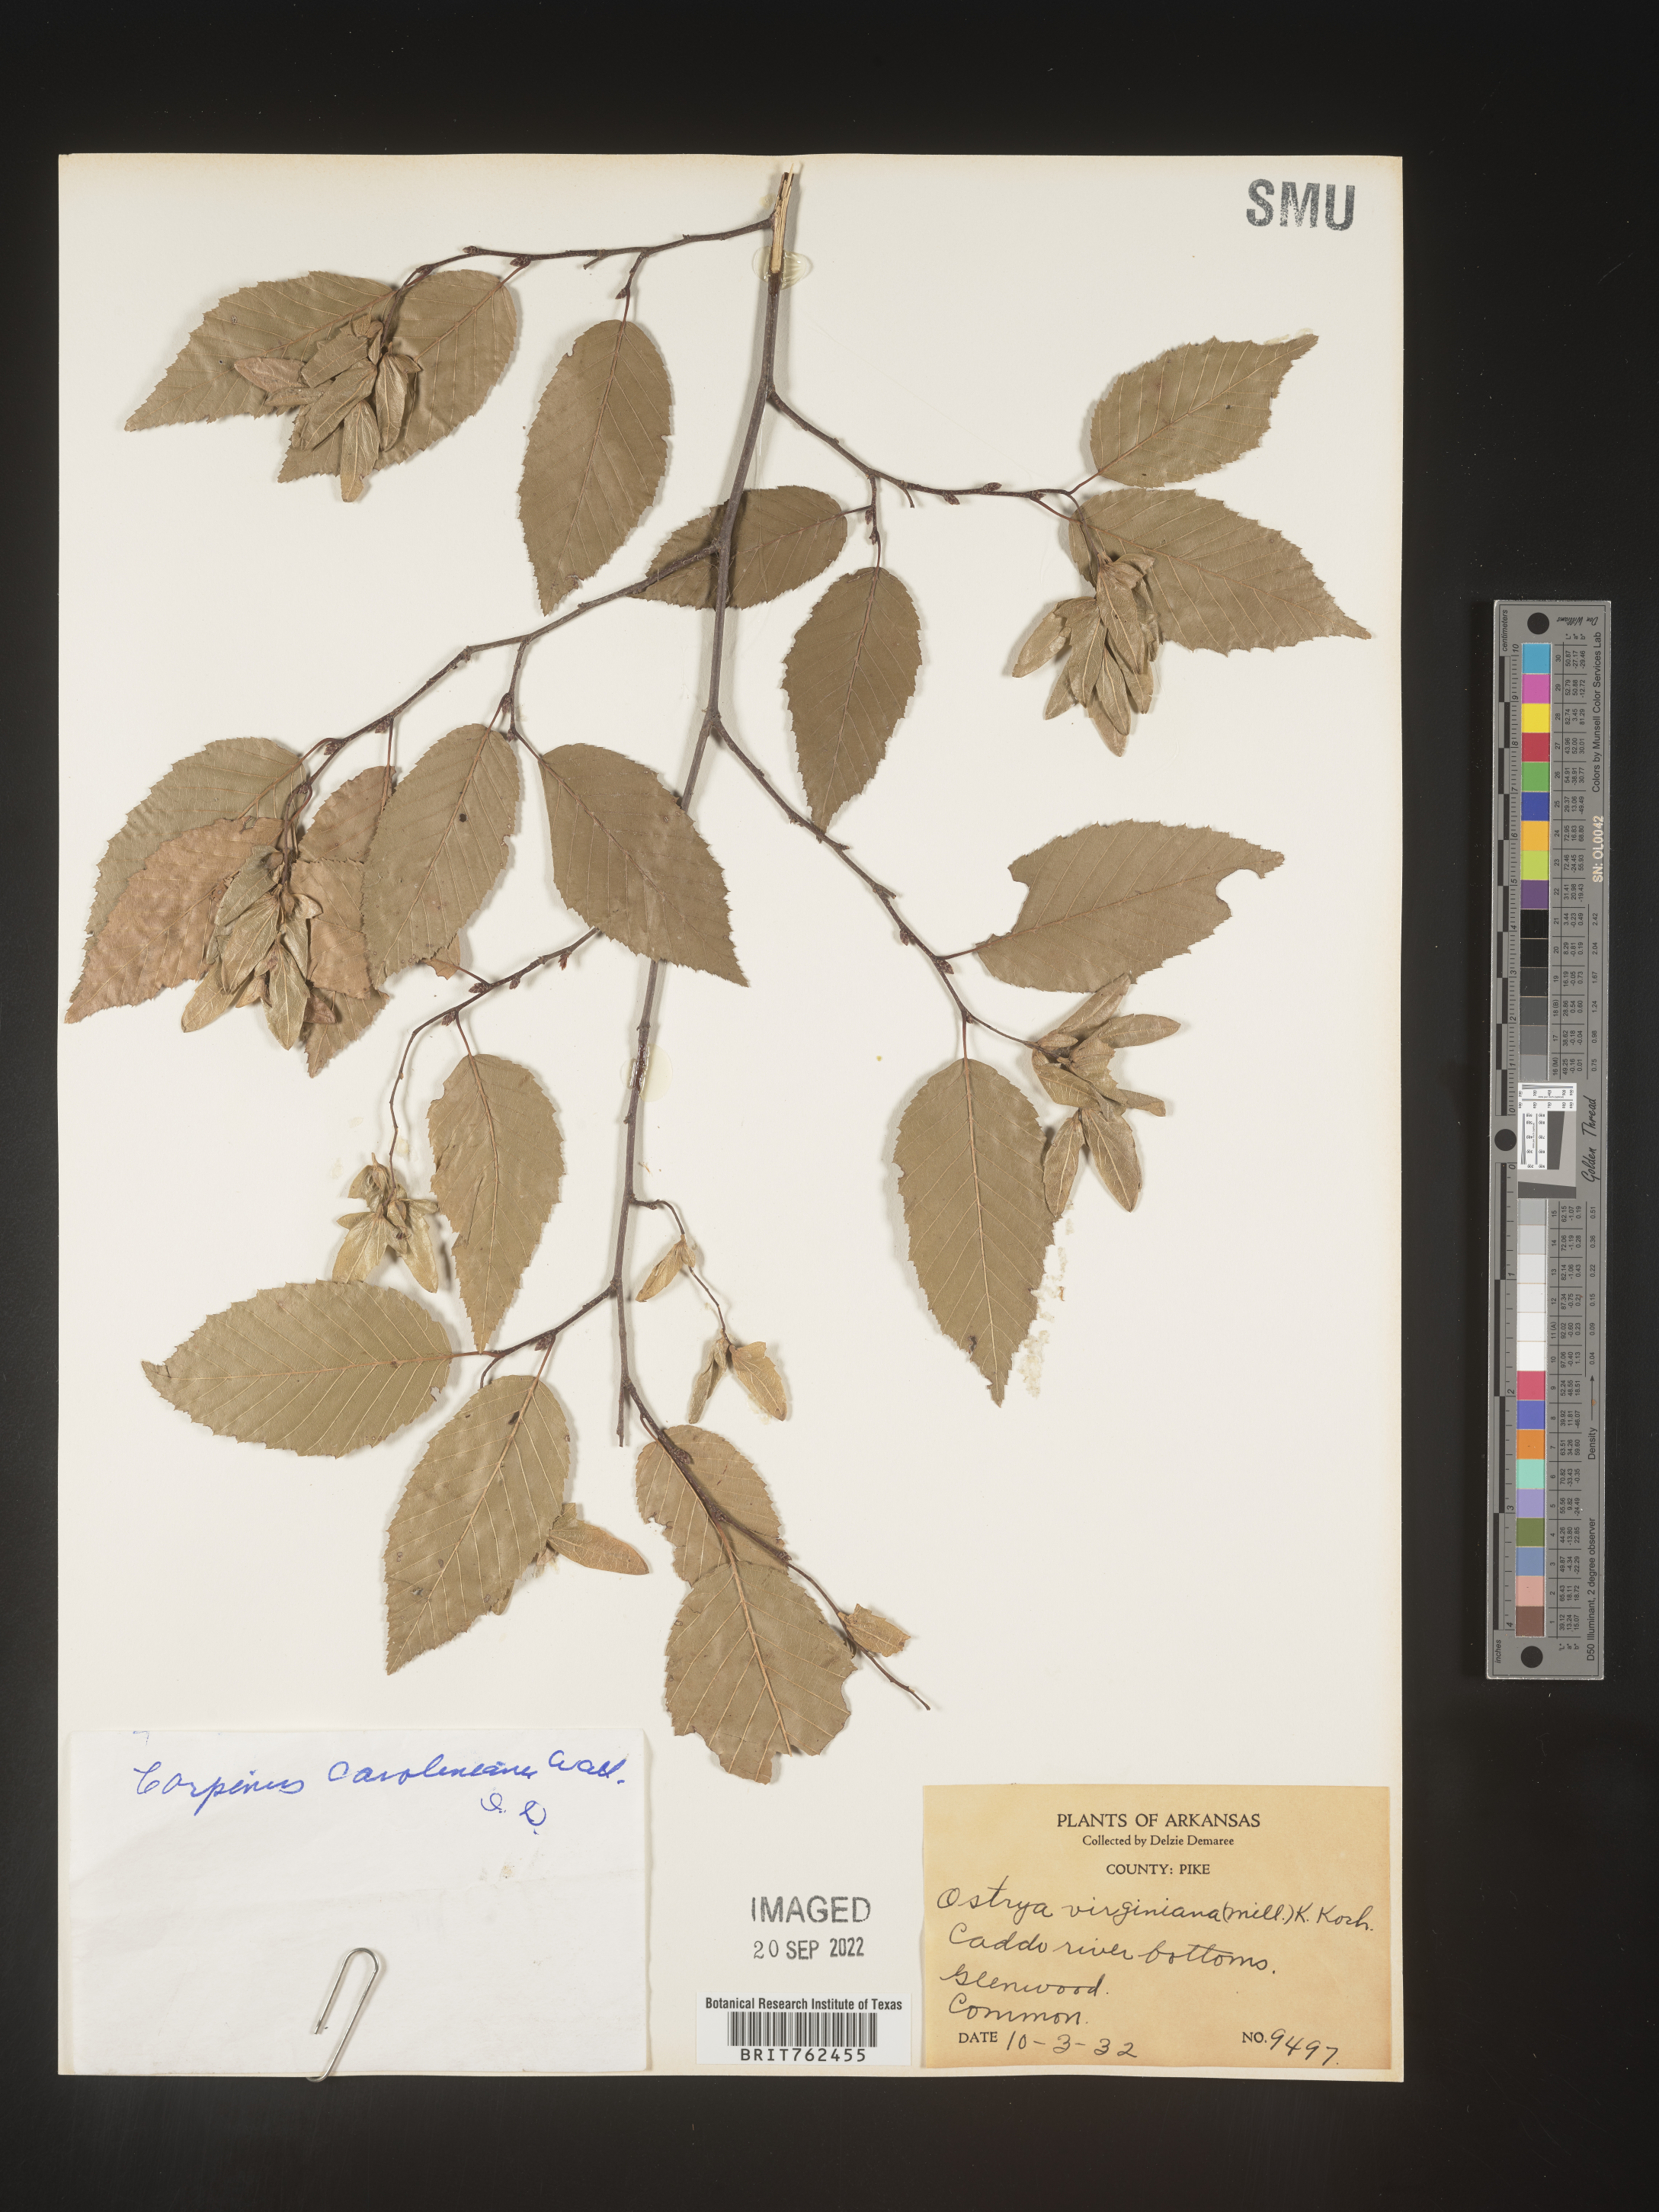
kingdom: Plantae
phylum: Tracheophyta
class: Magnoliopsida
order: Fagales
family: Betulaceae
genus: Carpinus
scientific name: Carpinus caroliniana
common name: American hornbeam
